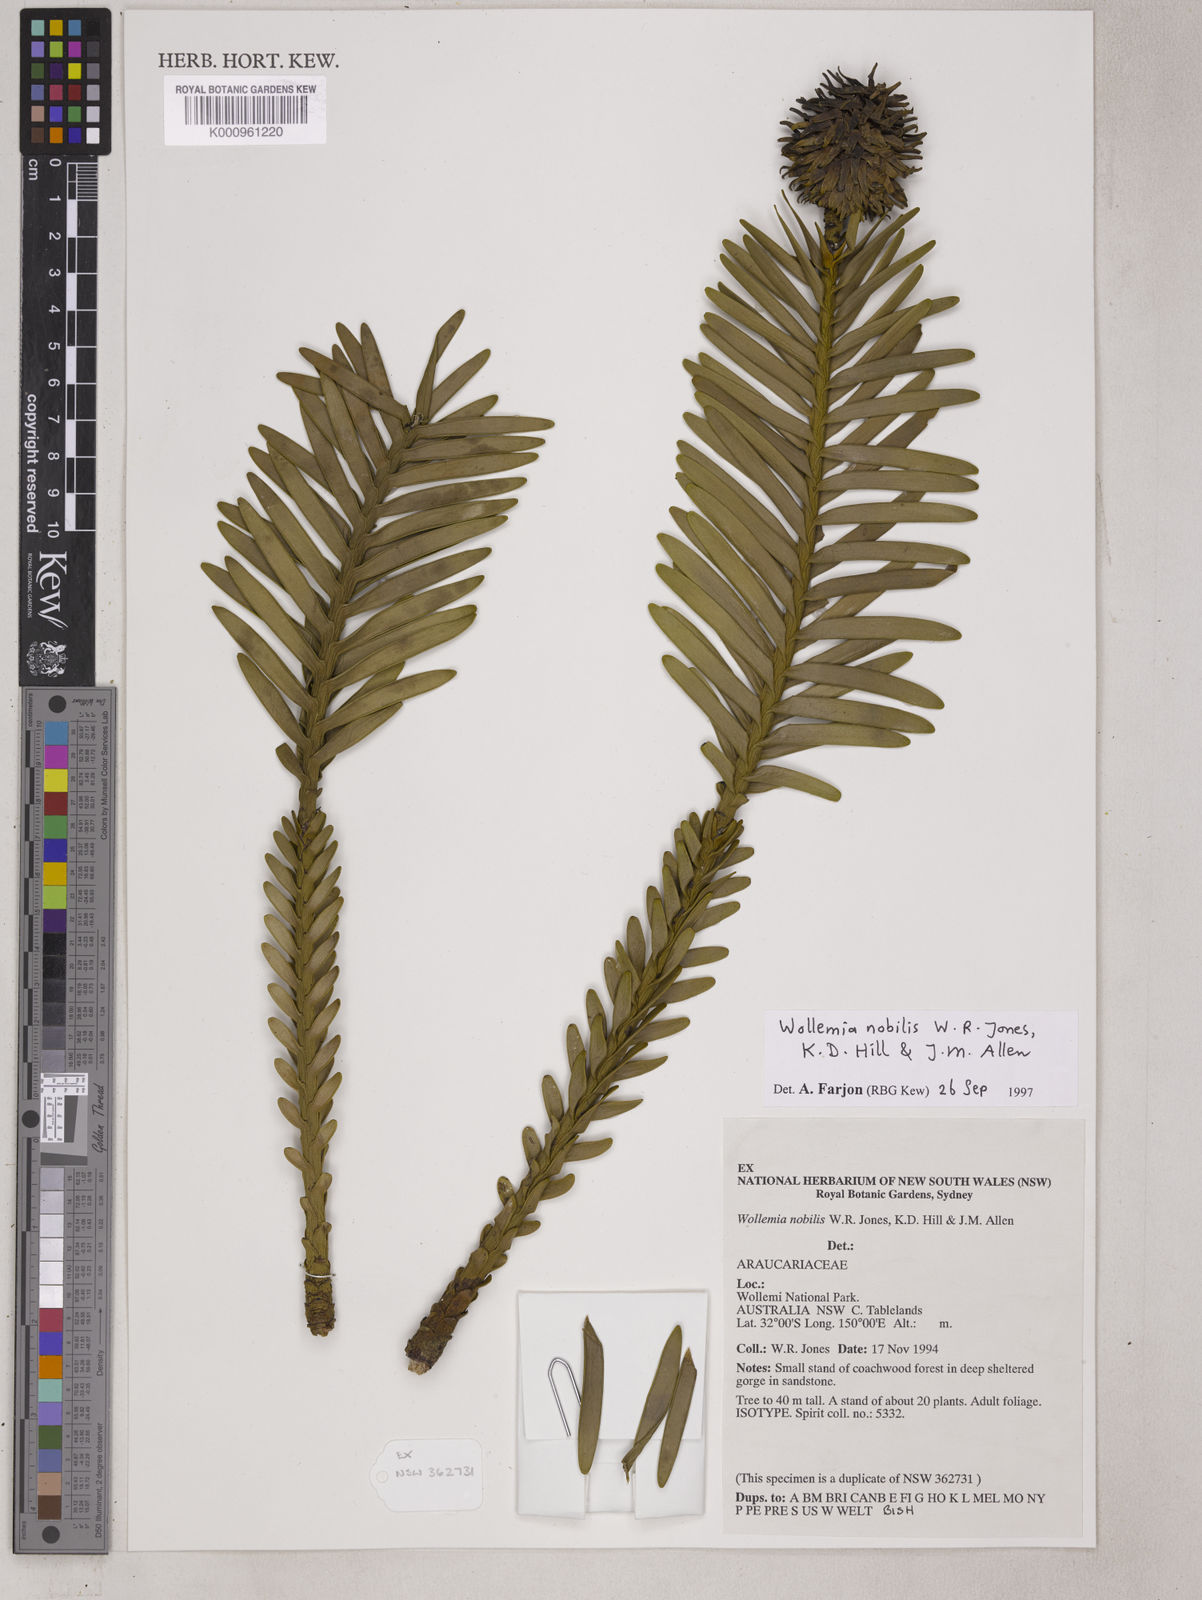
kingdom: Plantae
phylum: Tracheophyta
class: Pinopsida
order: Pinales
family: Araucariaceae
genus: Wollemia
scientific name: Wollemia nobilis
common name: Wollemi pine
